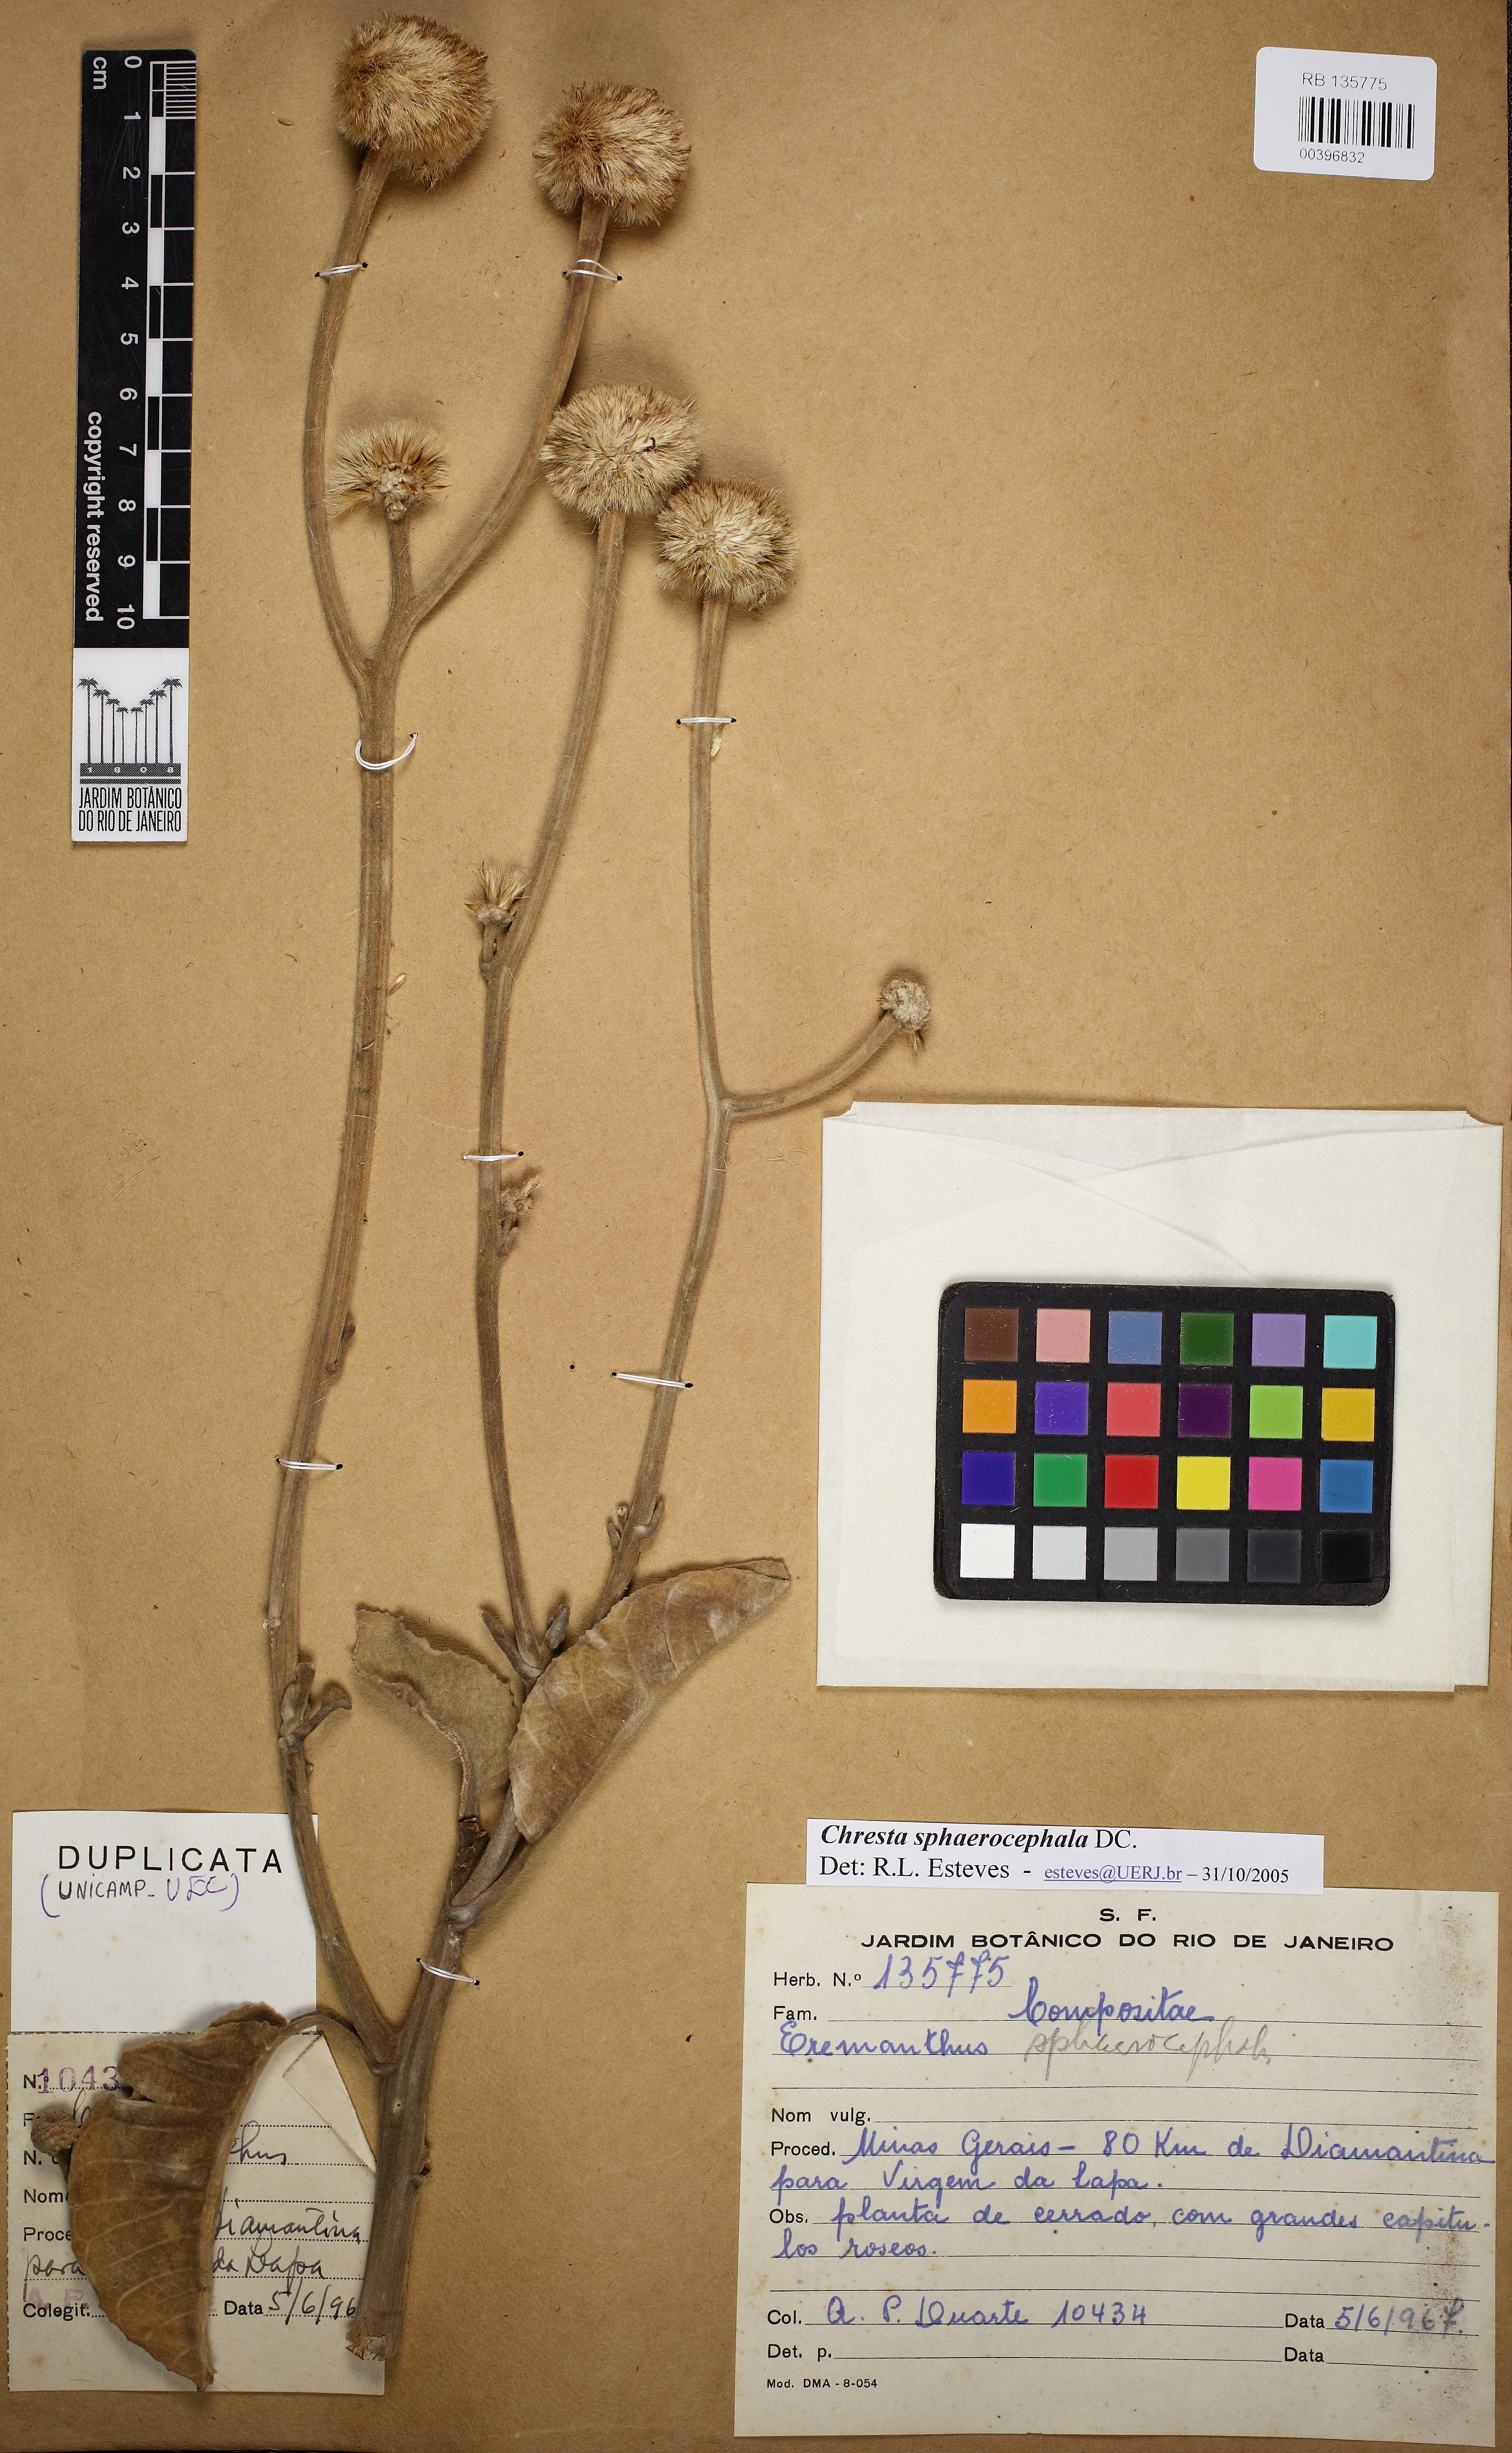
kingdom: Plantae
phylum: Tracheophyta
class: Magnoliopsida
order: Asterales
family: Asteraceae
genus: Chresta
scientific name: Chresta sphaerocephala
